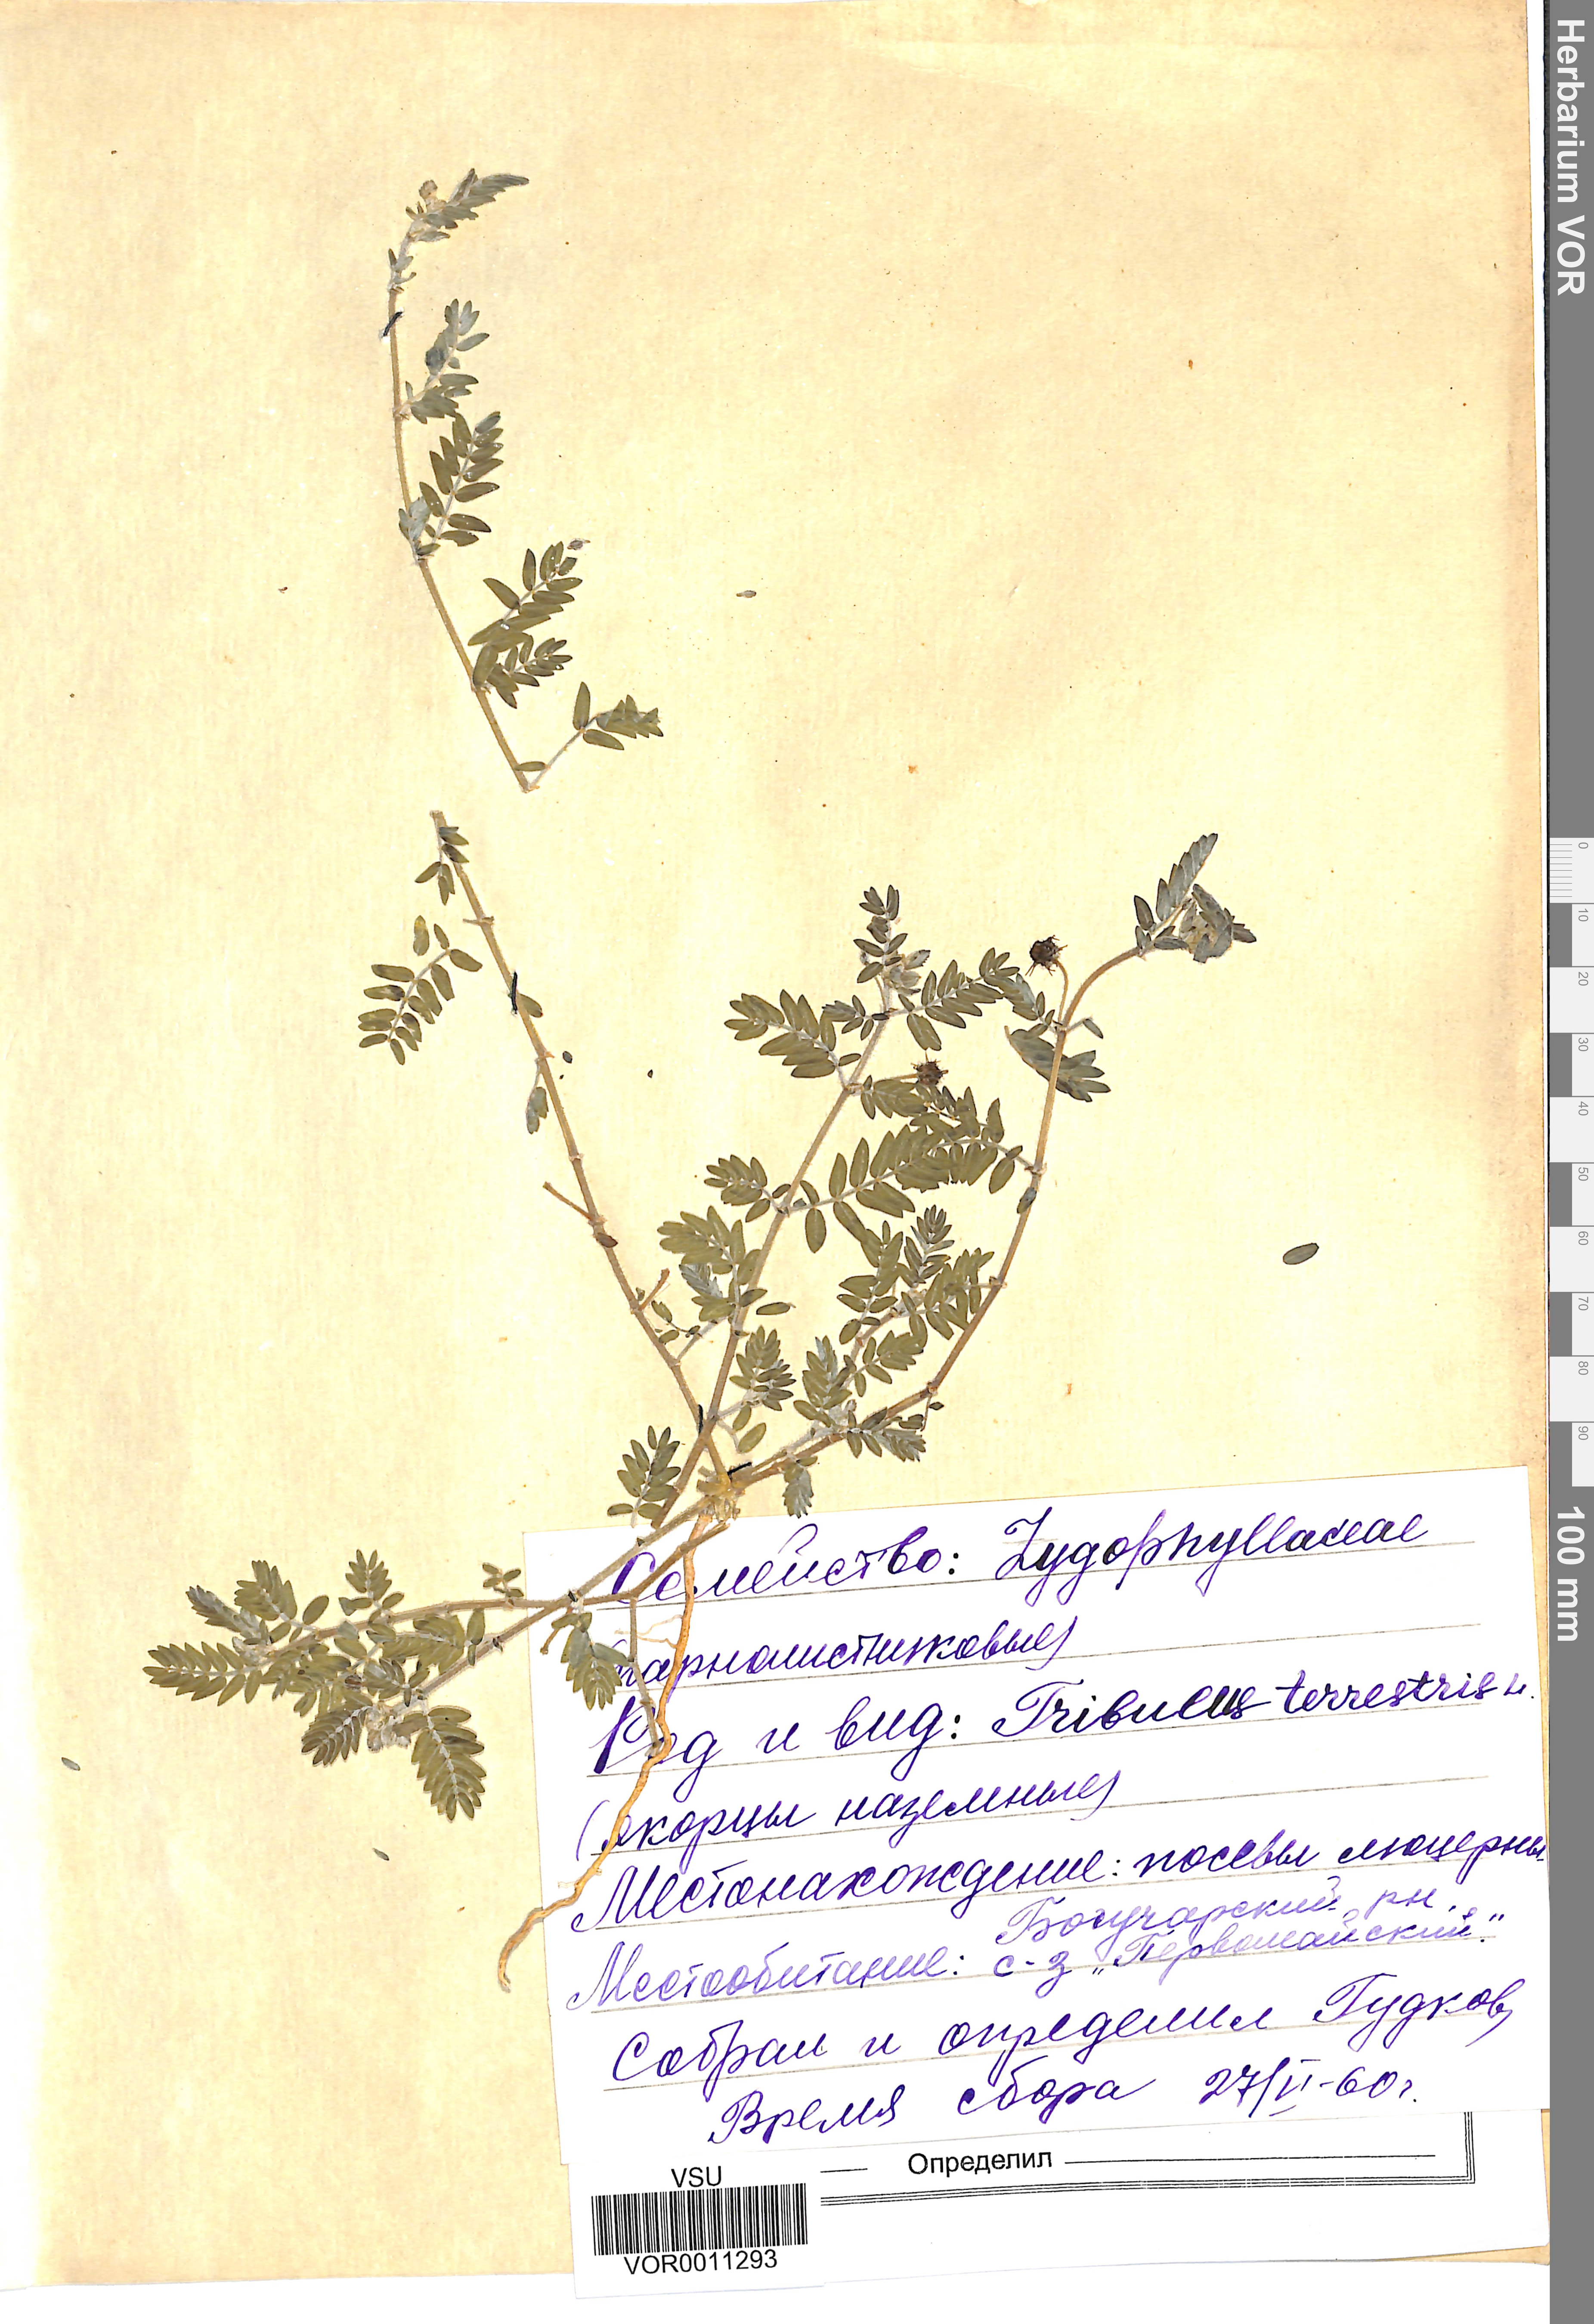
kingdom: Plantae
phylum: Tracheophyta
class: Magnoliopsida
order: Zygophyllales
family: Zygophyllaceae
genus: Tribulus
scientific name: Tribulus terrestris
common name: Puncturevine
